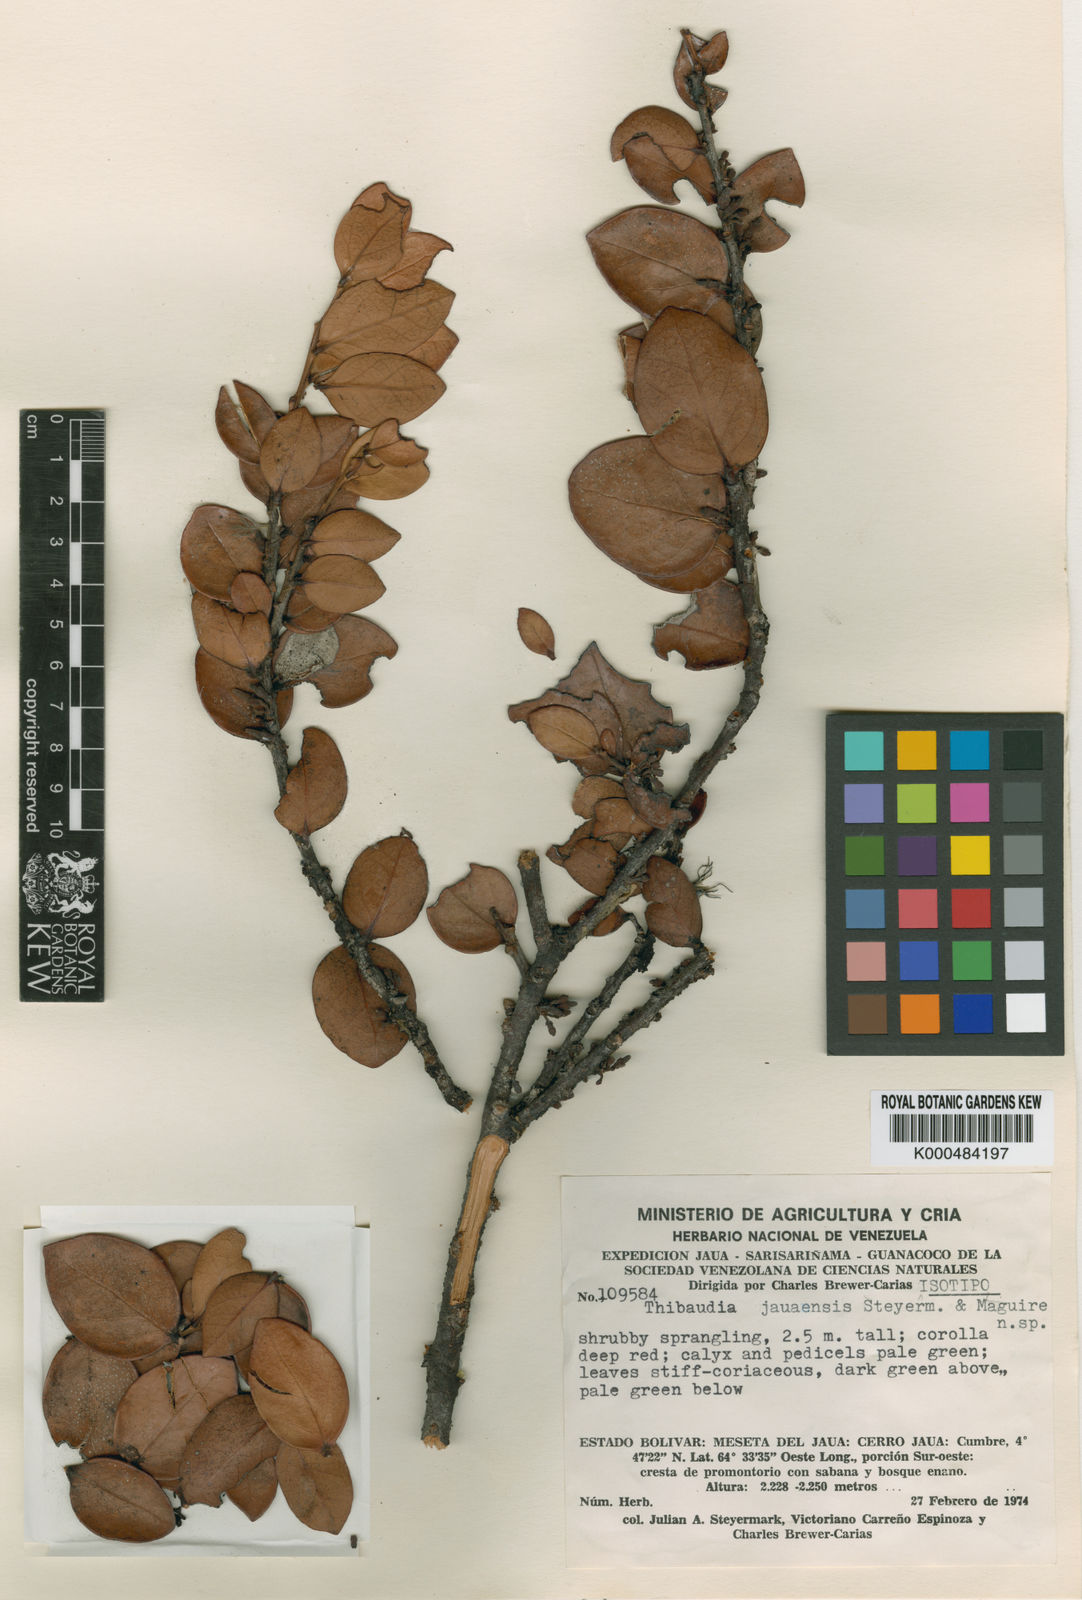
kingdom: Plantae
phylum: Tracheophyta
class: Magnoliopsida
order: Ericales
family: Ericaceae
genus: Thibaudia
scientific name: Thibaudia involucrata
